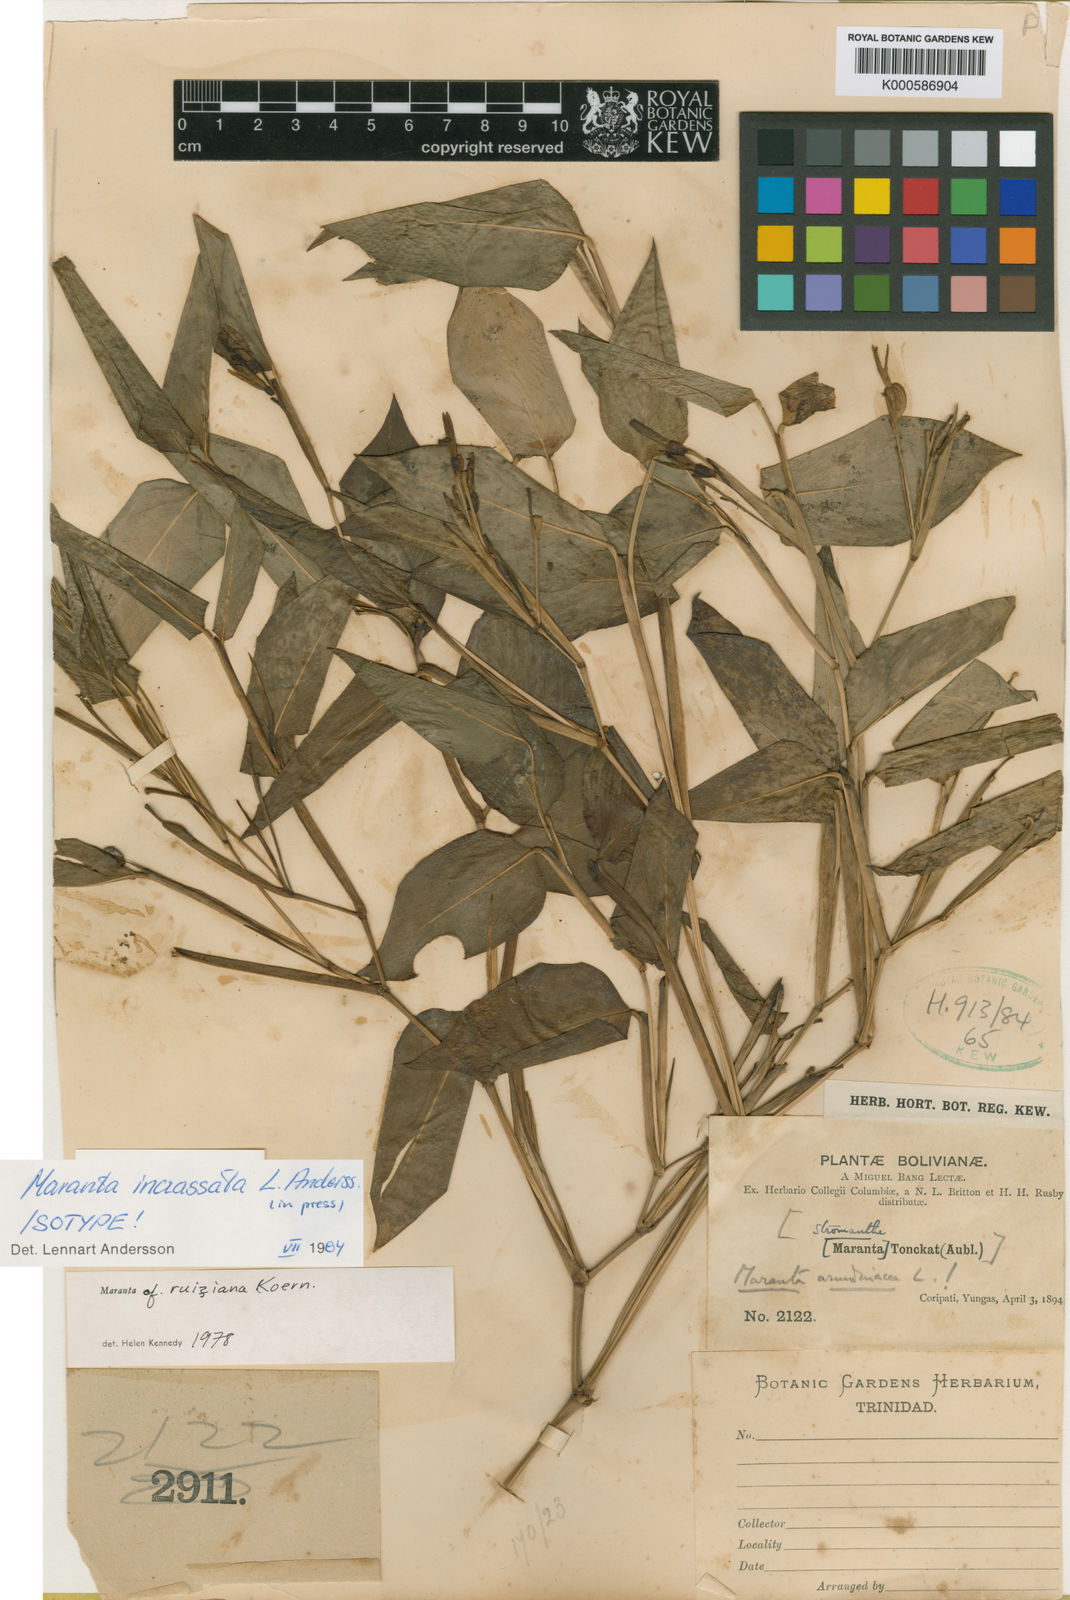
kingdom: Plantae
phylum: Tracheophyta
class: Liliopsida
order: Zingiberales
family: Marantaceae
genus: Maranta
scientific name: Maranta incrassata
